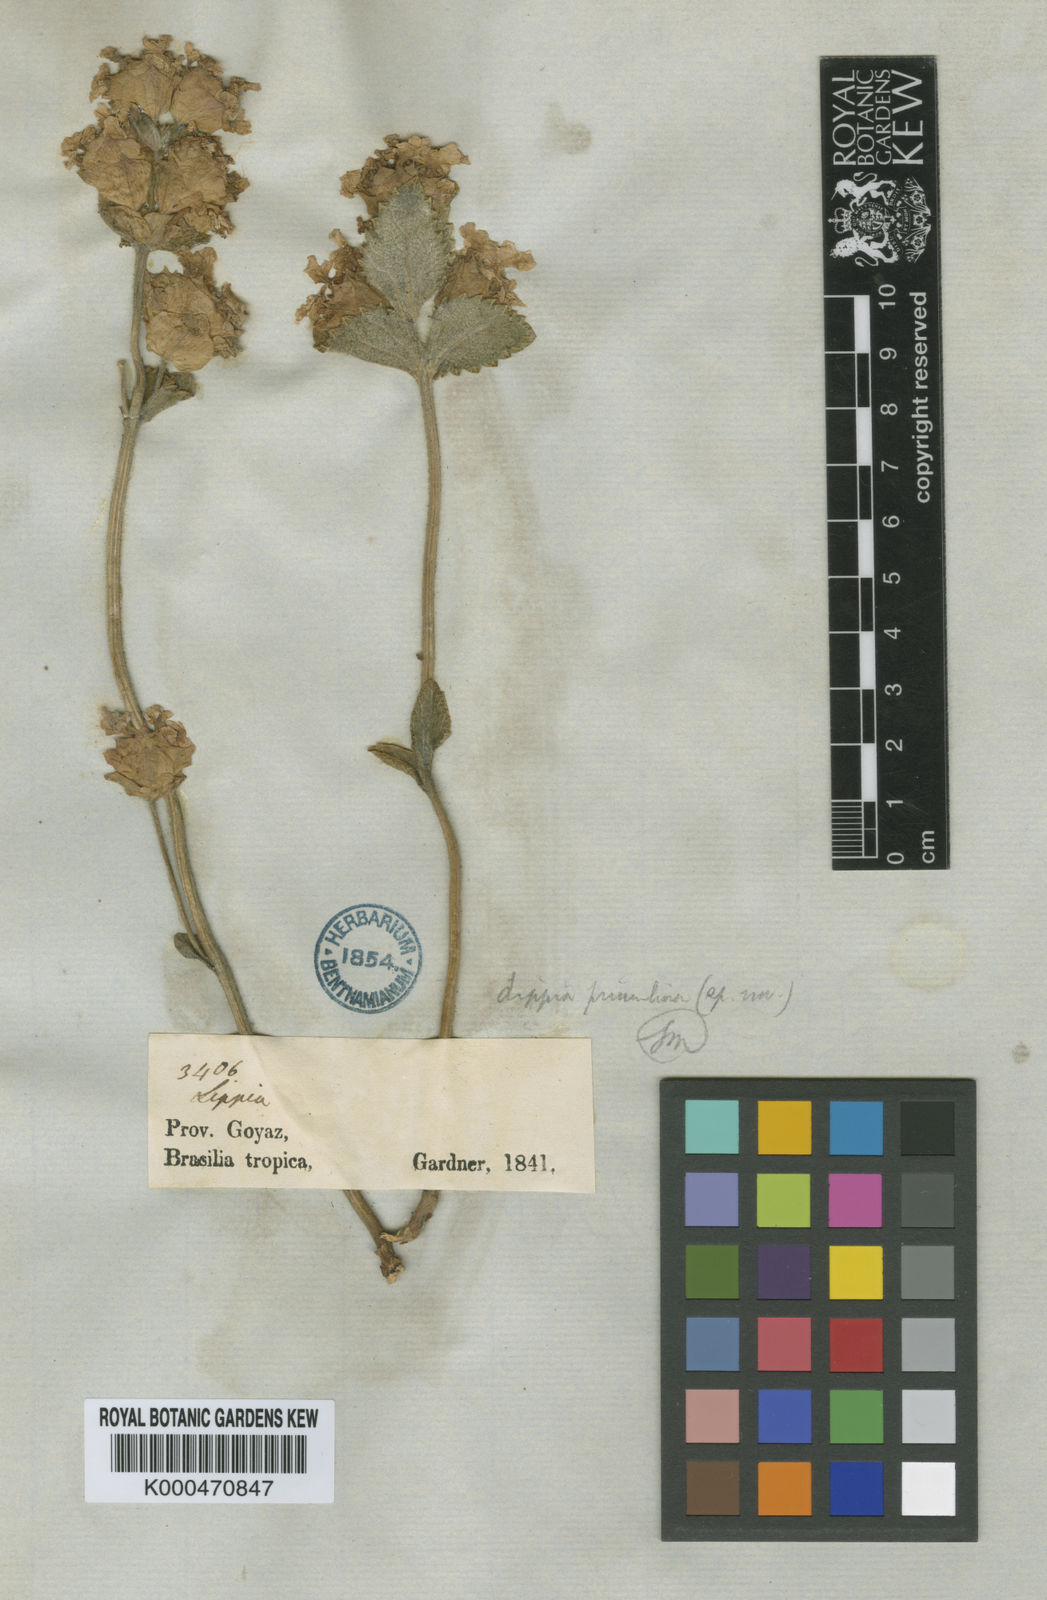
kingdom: Plantae
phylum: Tracheophyta
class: Magnoliopsida
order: Lamiales
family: Verbenaceae
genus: Lippia
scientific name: Lippia primulina
